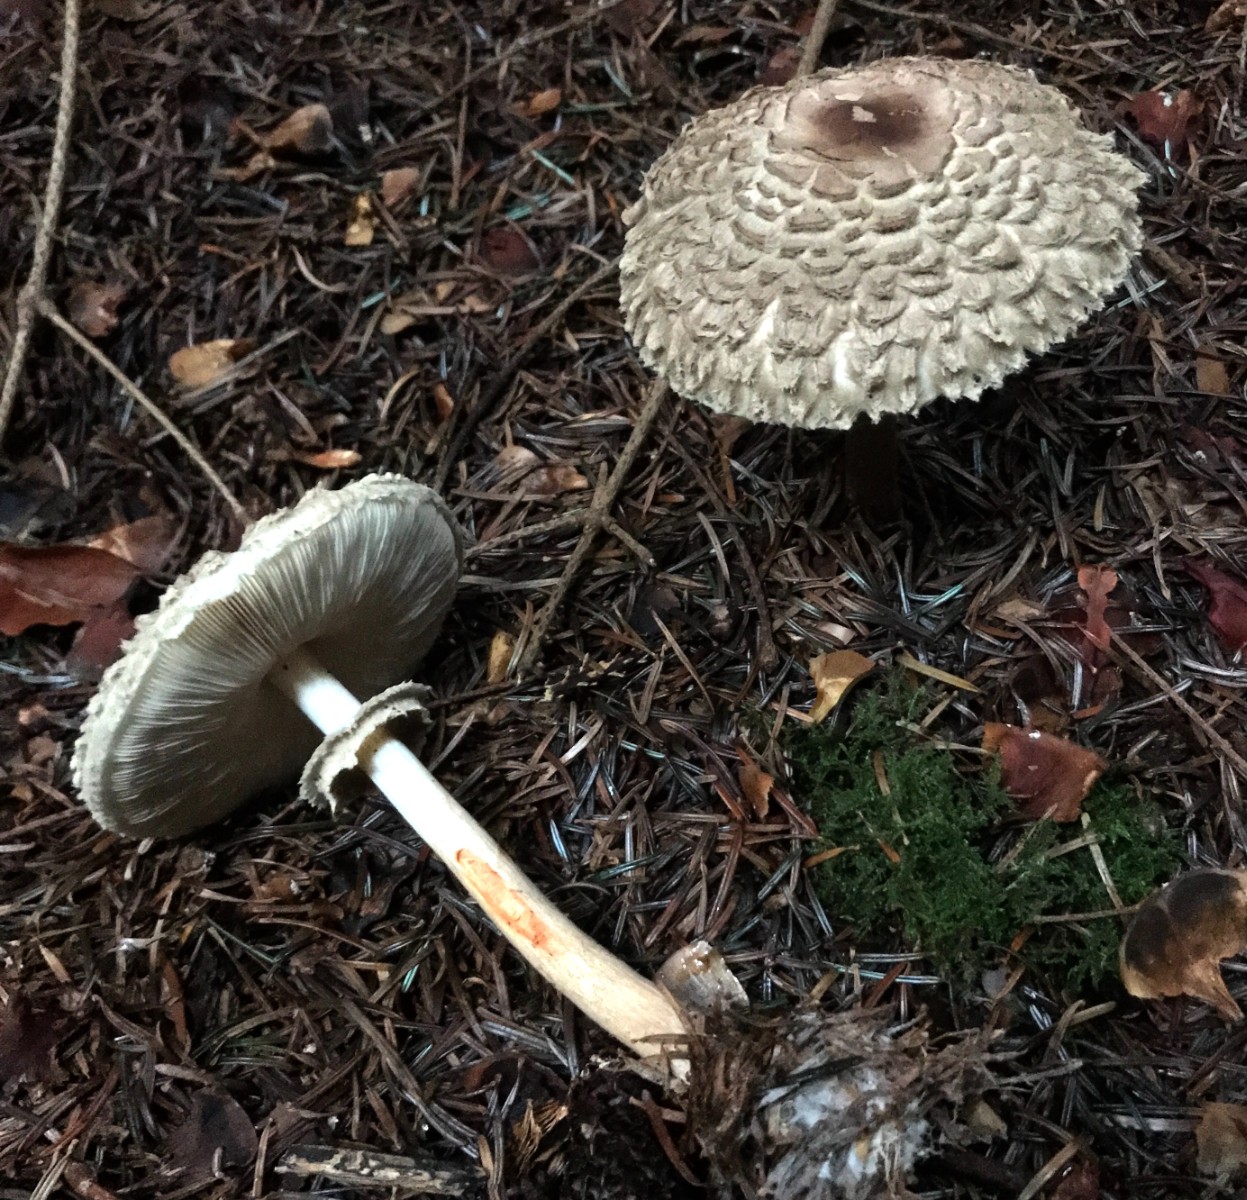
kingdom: Fungi
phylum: Basidiomycota
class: Agaricomycetes
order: Agaricales
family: Agaricaceae
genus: Chlorophyllum
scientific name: Chlorophyllum olivieri
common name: almindelig rabarberhat
